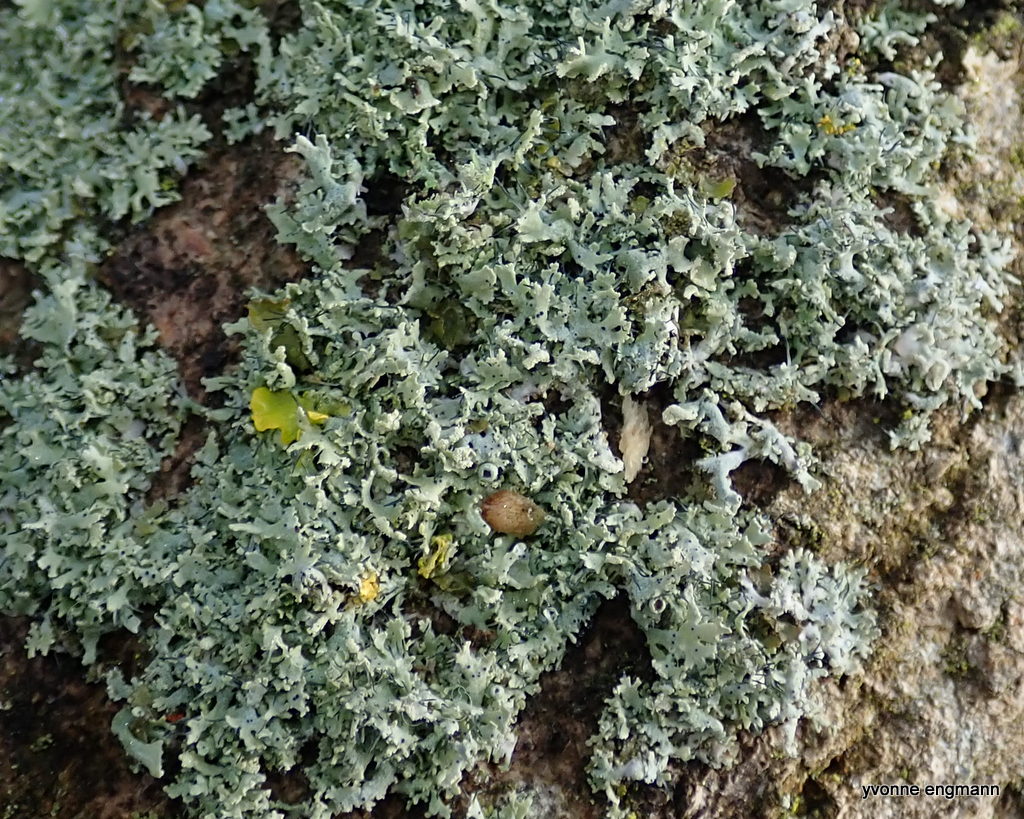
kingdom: Fungi
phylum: Ascomycota
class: Lecanoromycetes
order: Caliciales
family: Physciaceae
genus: Physcia
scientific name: Physcia tenella
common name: spæd rosetlav
